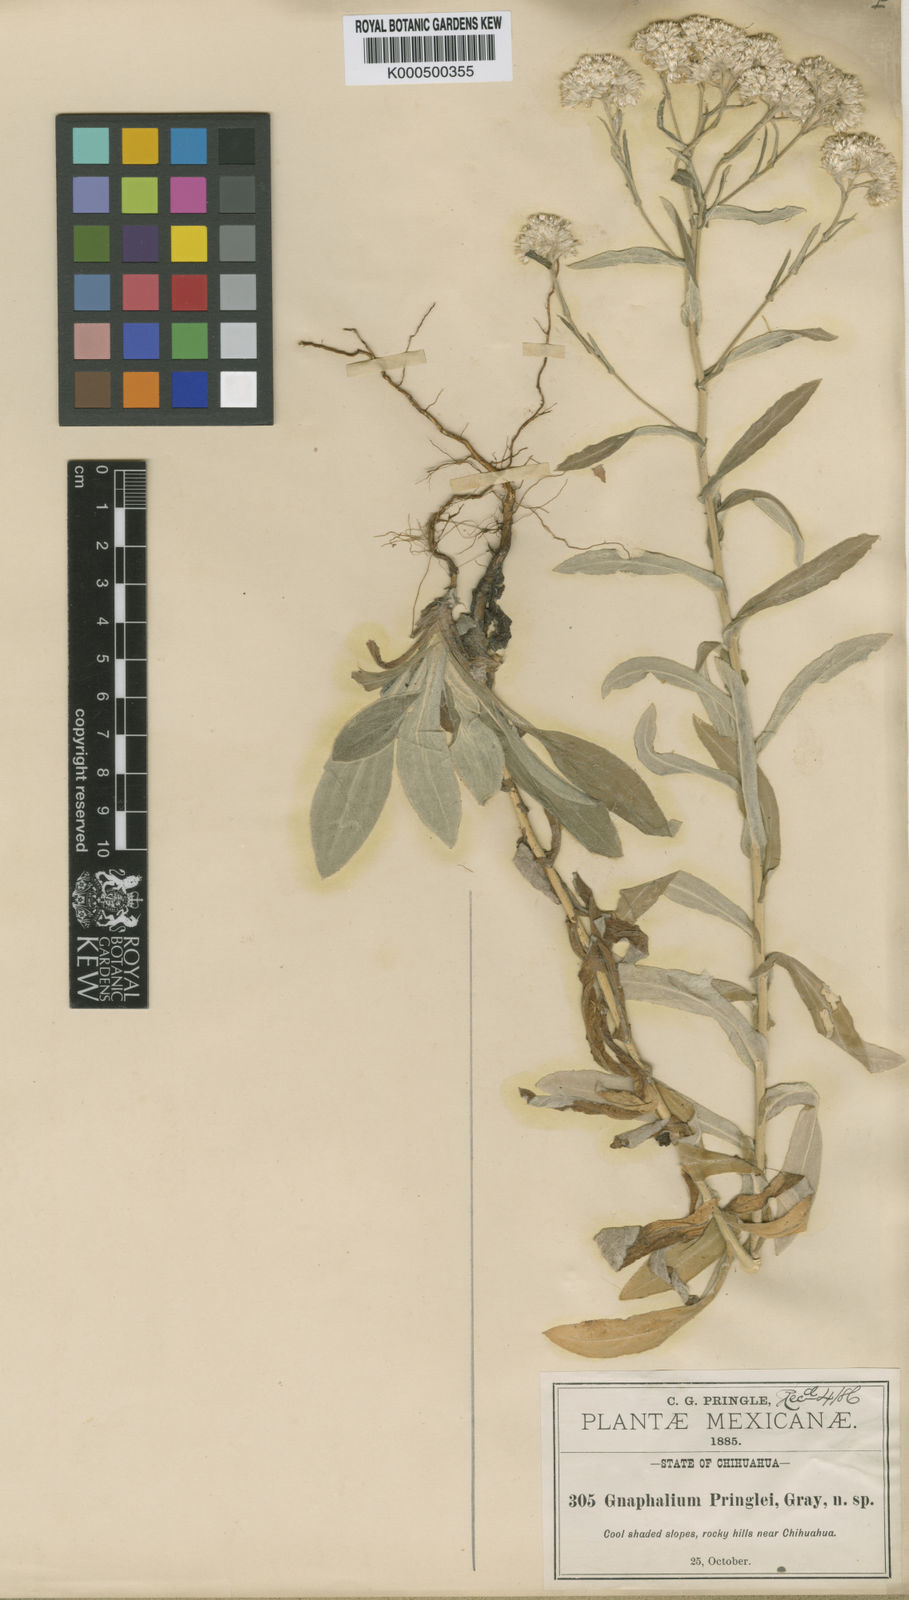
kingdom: Plantae
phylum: Tracheophyta
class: Magnoliopsida
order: Asterales
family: Asteraceae
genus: Pseudognaphalium
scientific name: Pseudognaphalium pringlei
